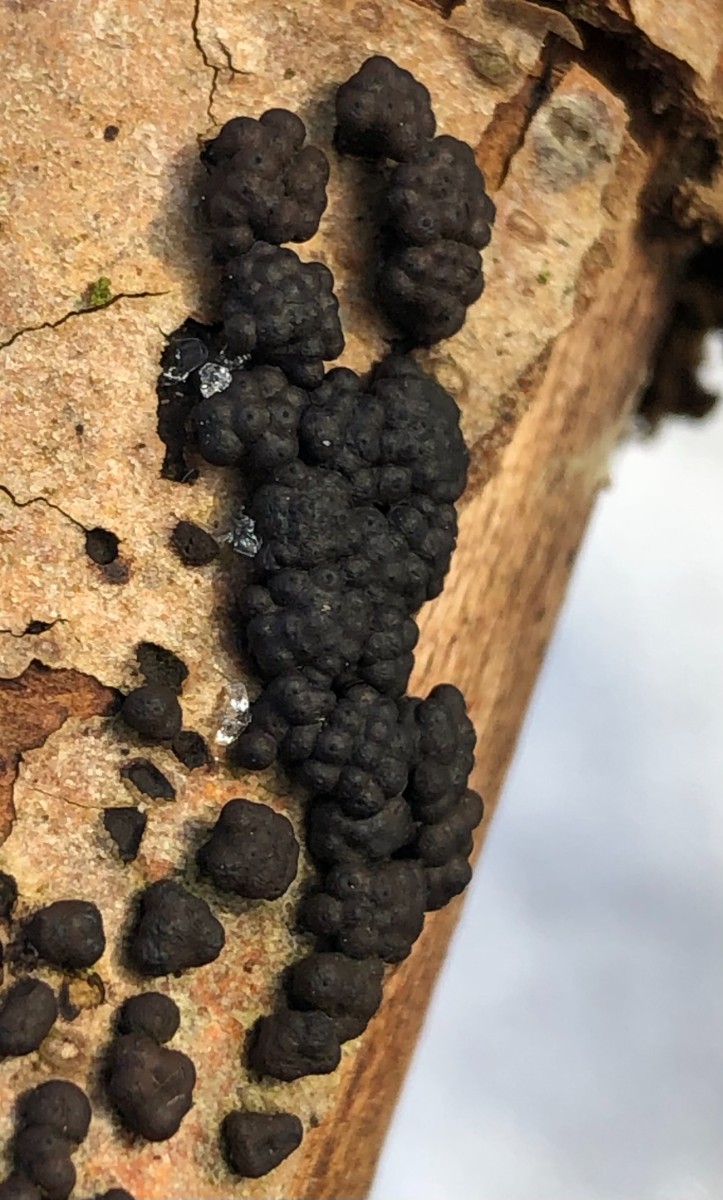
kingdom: Fungi
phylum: Ascomycota
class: Sordariomycetes
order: Xylariales
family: Hypoxylaceae
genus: Jackrogersella
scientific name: Jackrogersella cohaerens
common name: sammenflydende kulbær
